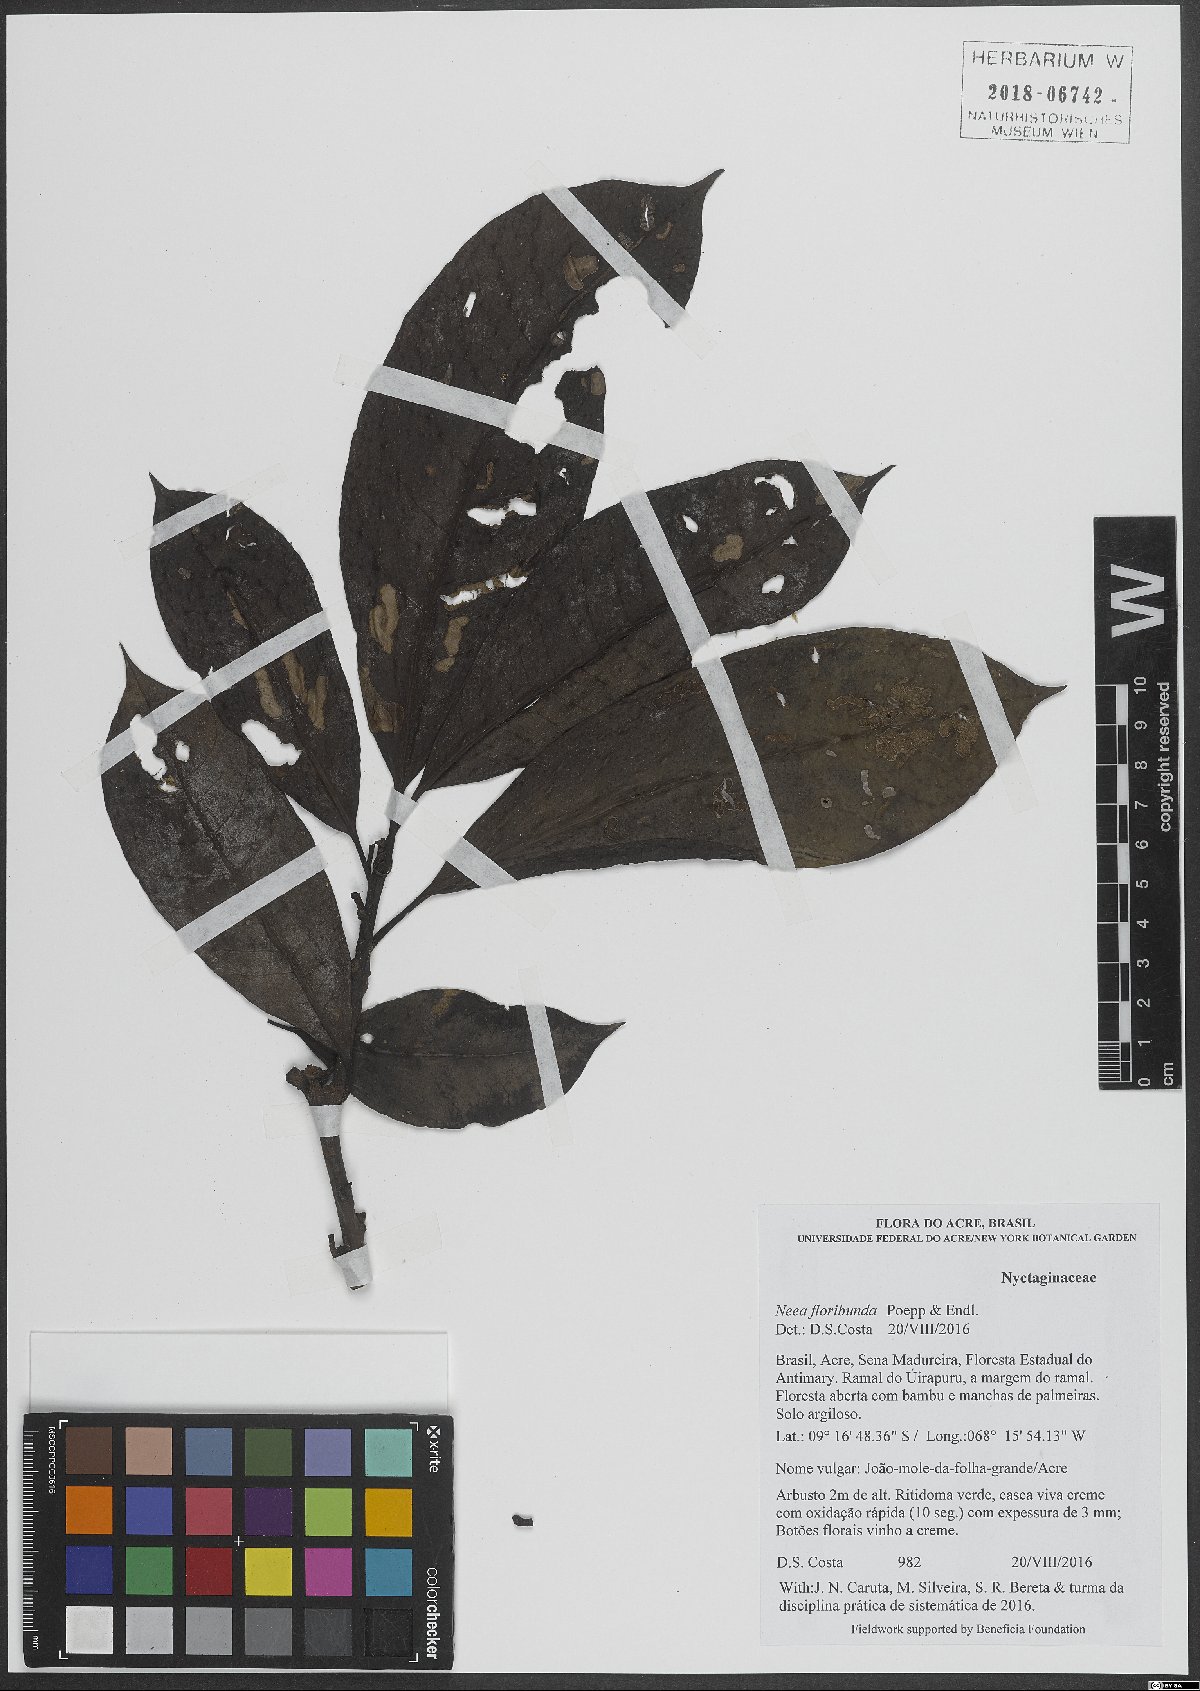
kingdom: Plantae
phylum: Tracheophyta
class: Magnoliopsida
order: Caryophyllales
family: Nyctaginaceae
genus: Neea
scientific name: Neea floribunda
